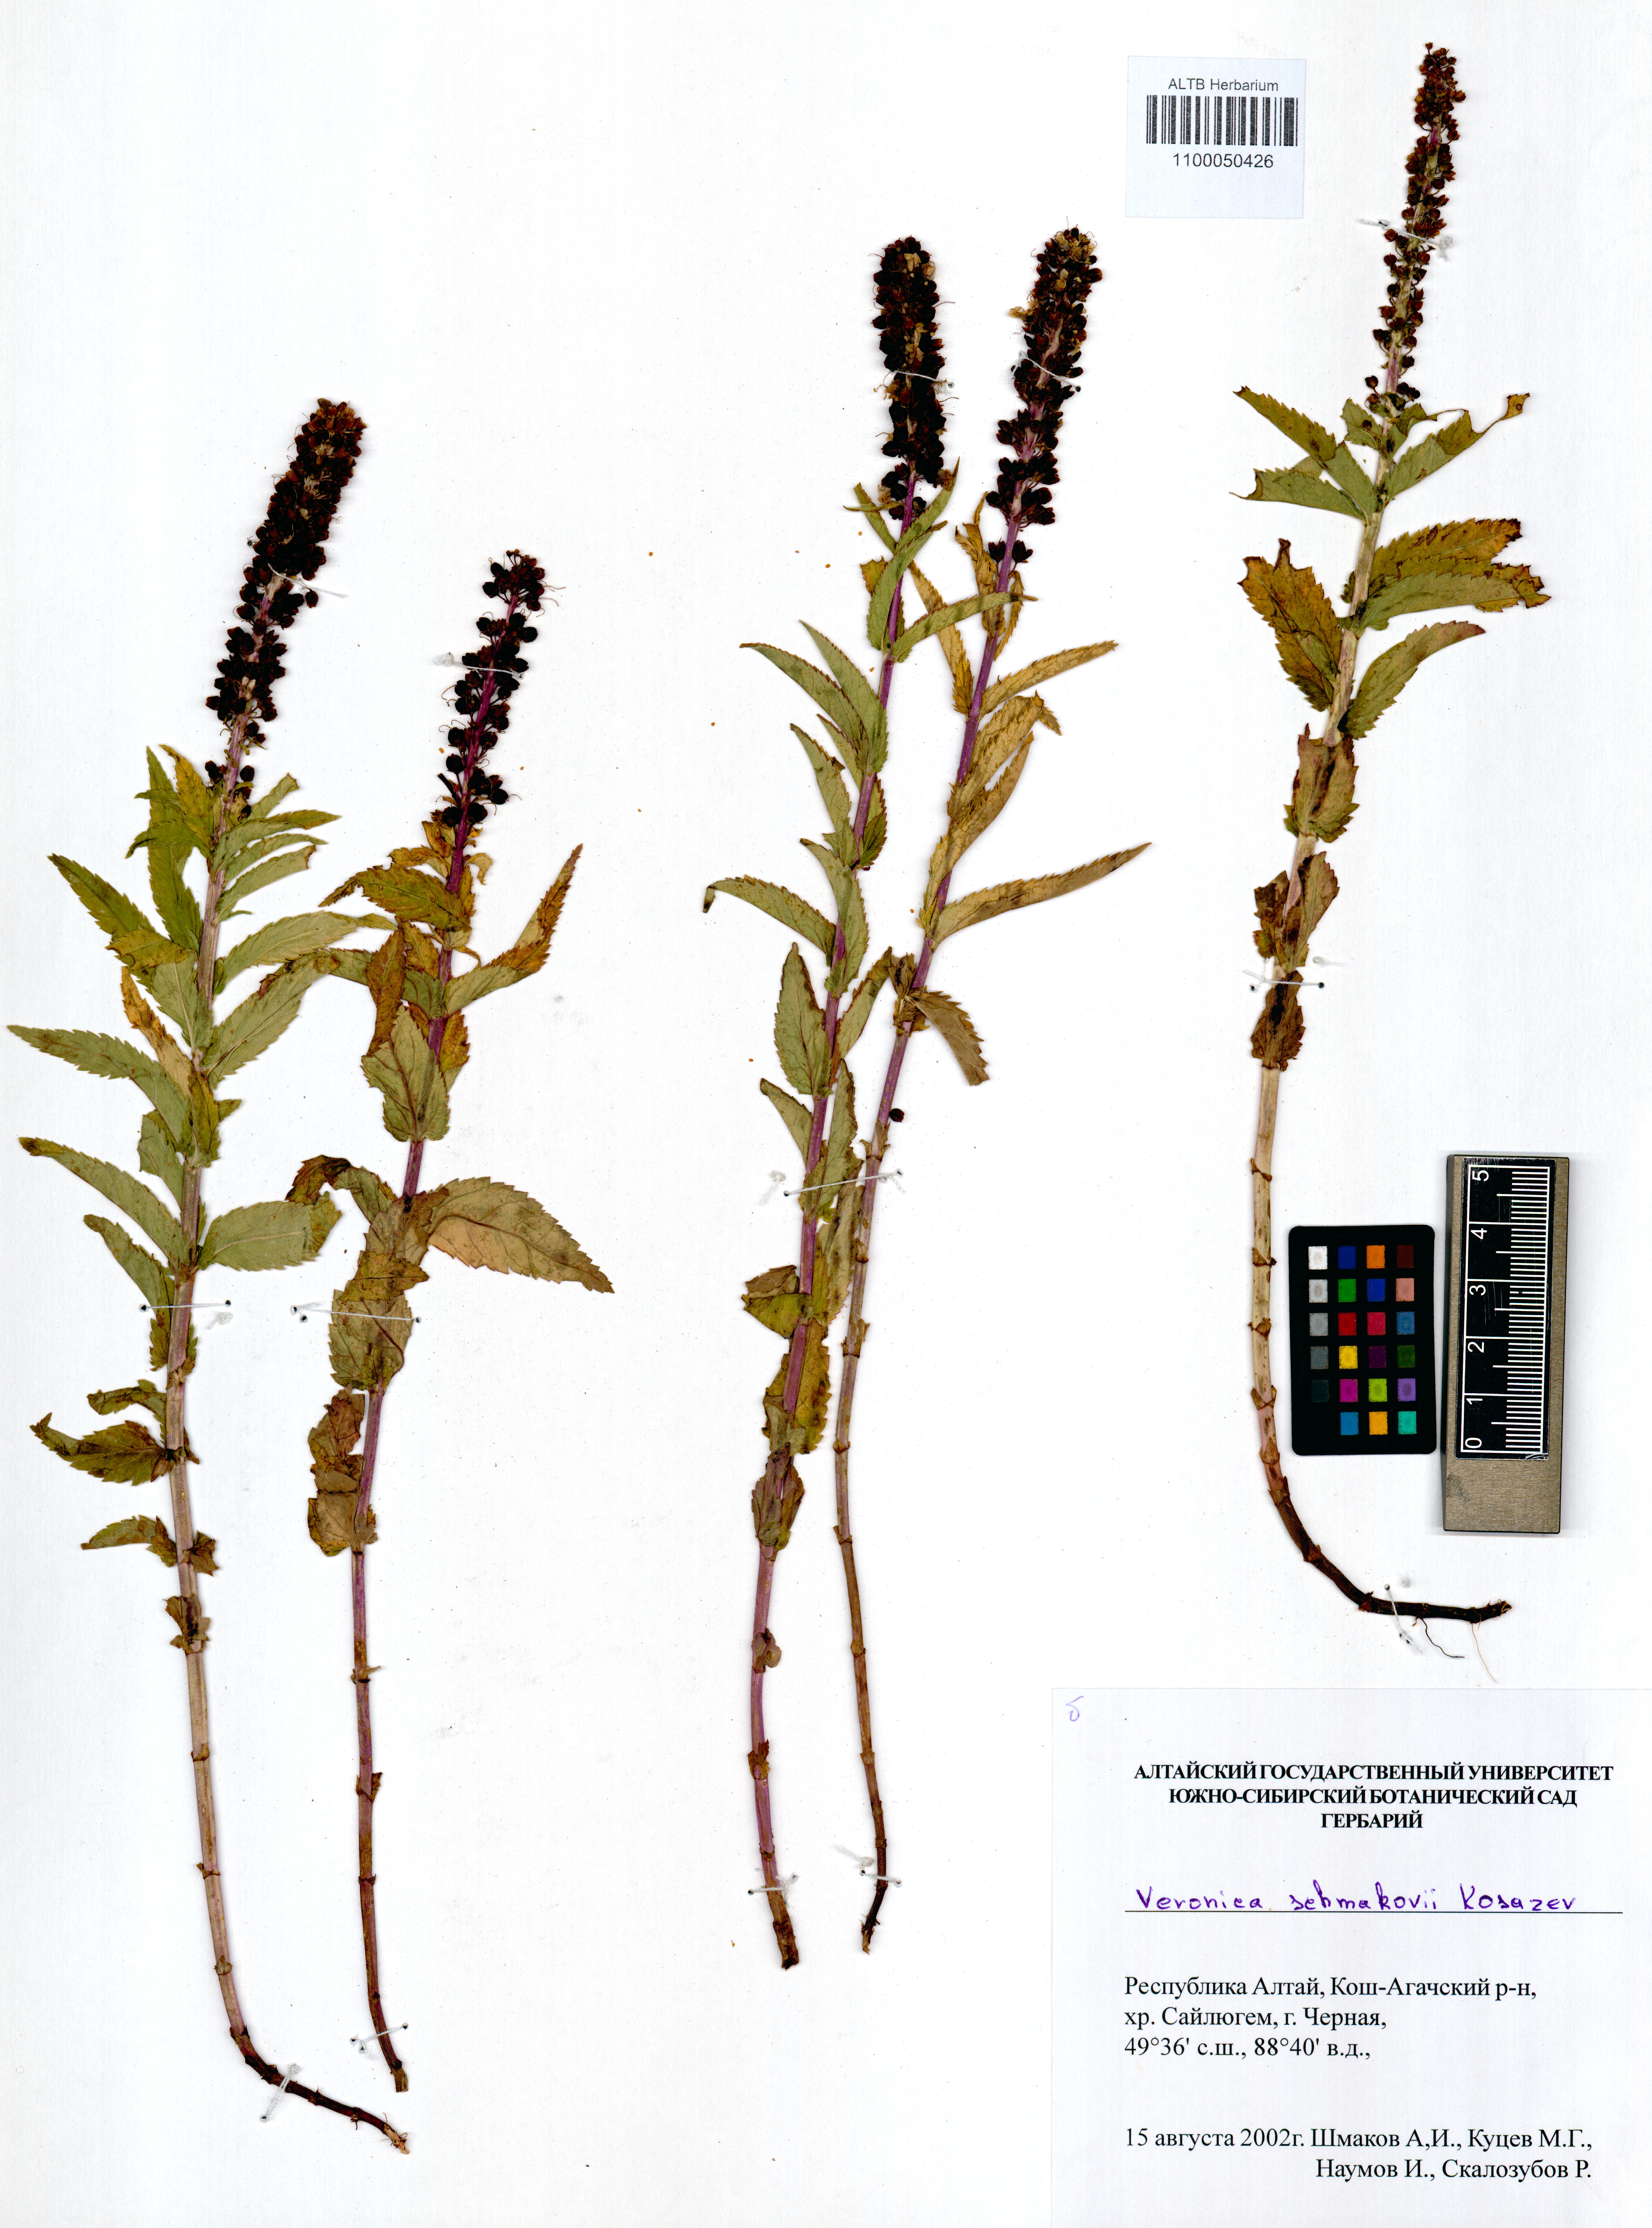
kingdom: Plantae
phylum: Tracheophyta
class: Magnoliopsida
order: Lamiales
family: Plantaginaceae
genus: Veronica
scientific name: Veronica schmakovii
